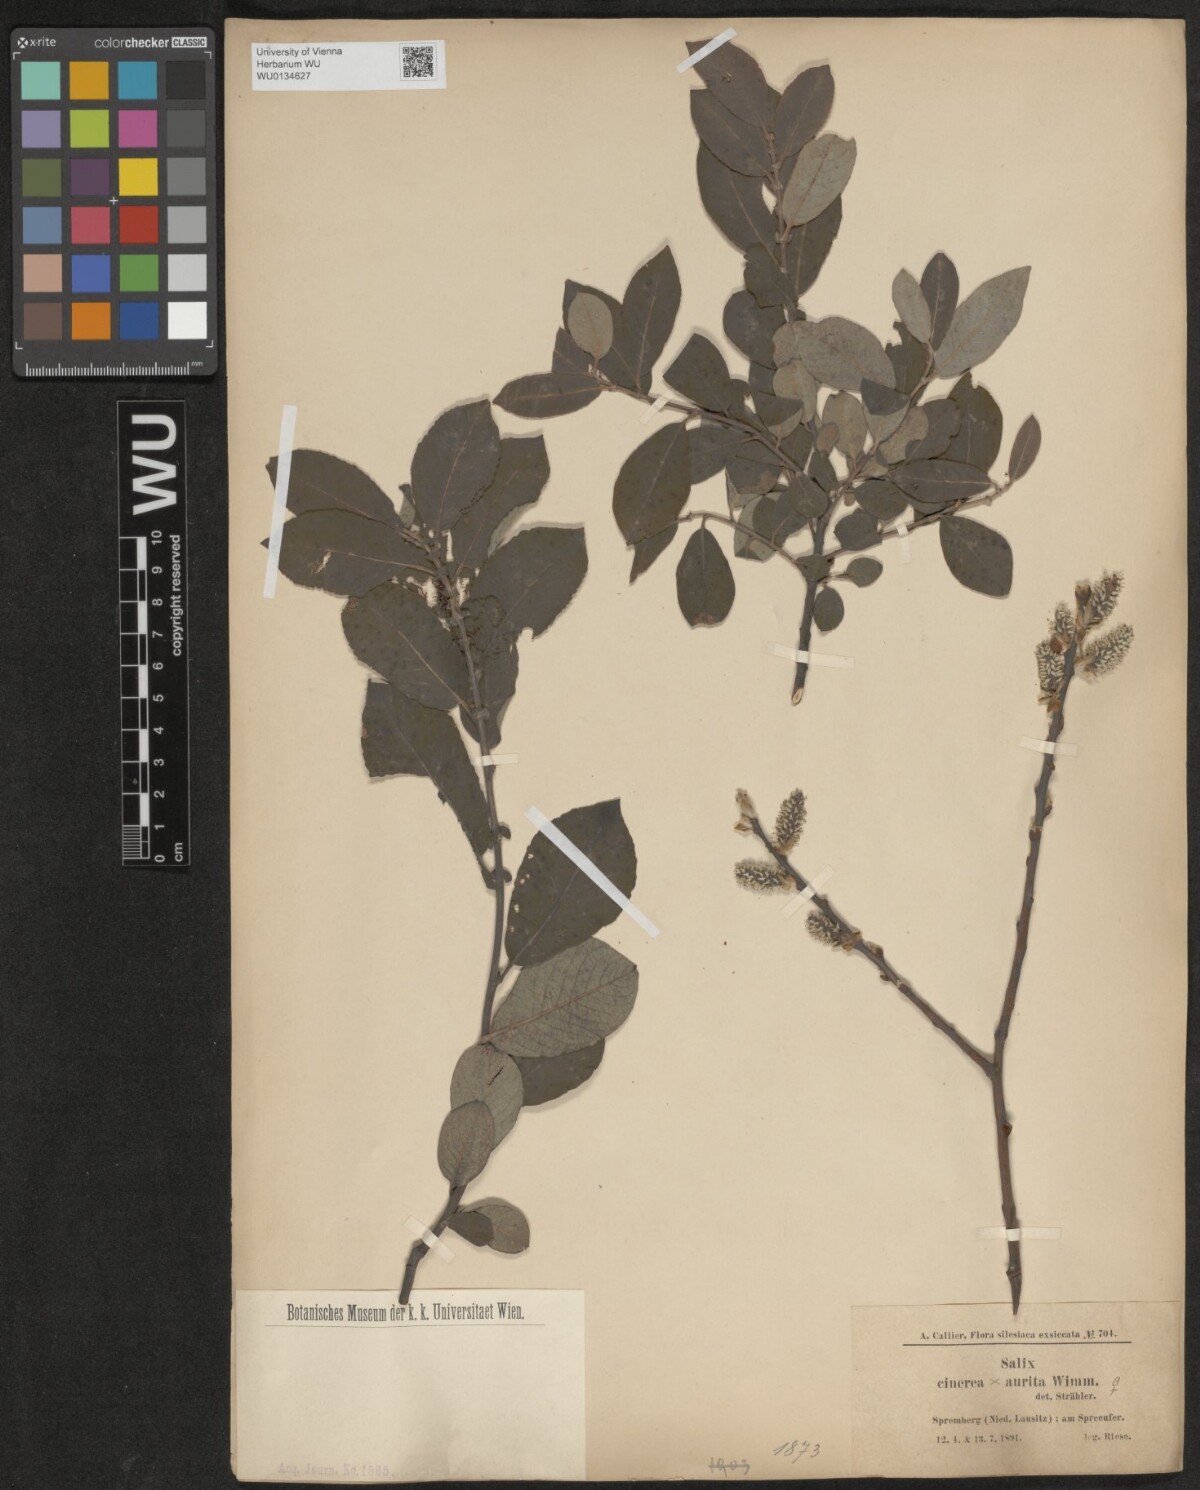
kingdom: Plantae
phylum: Tracheophyta
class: Magnoliopsida
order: Malpighiales
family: Salicaceae
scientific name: Salicaceae
